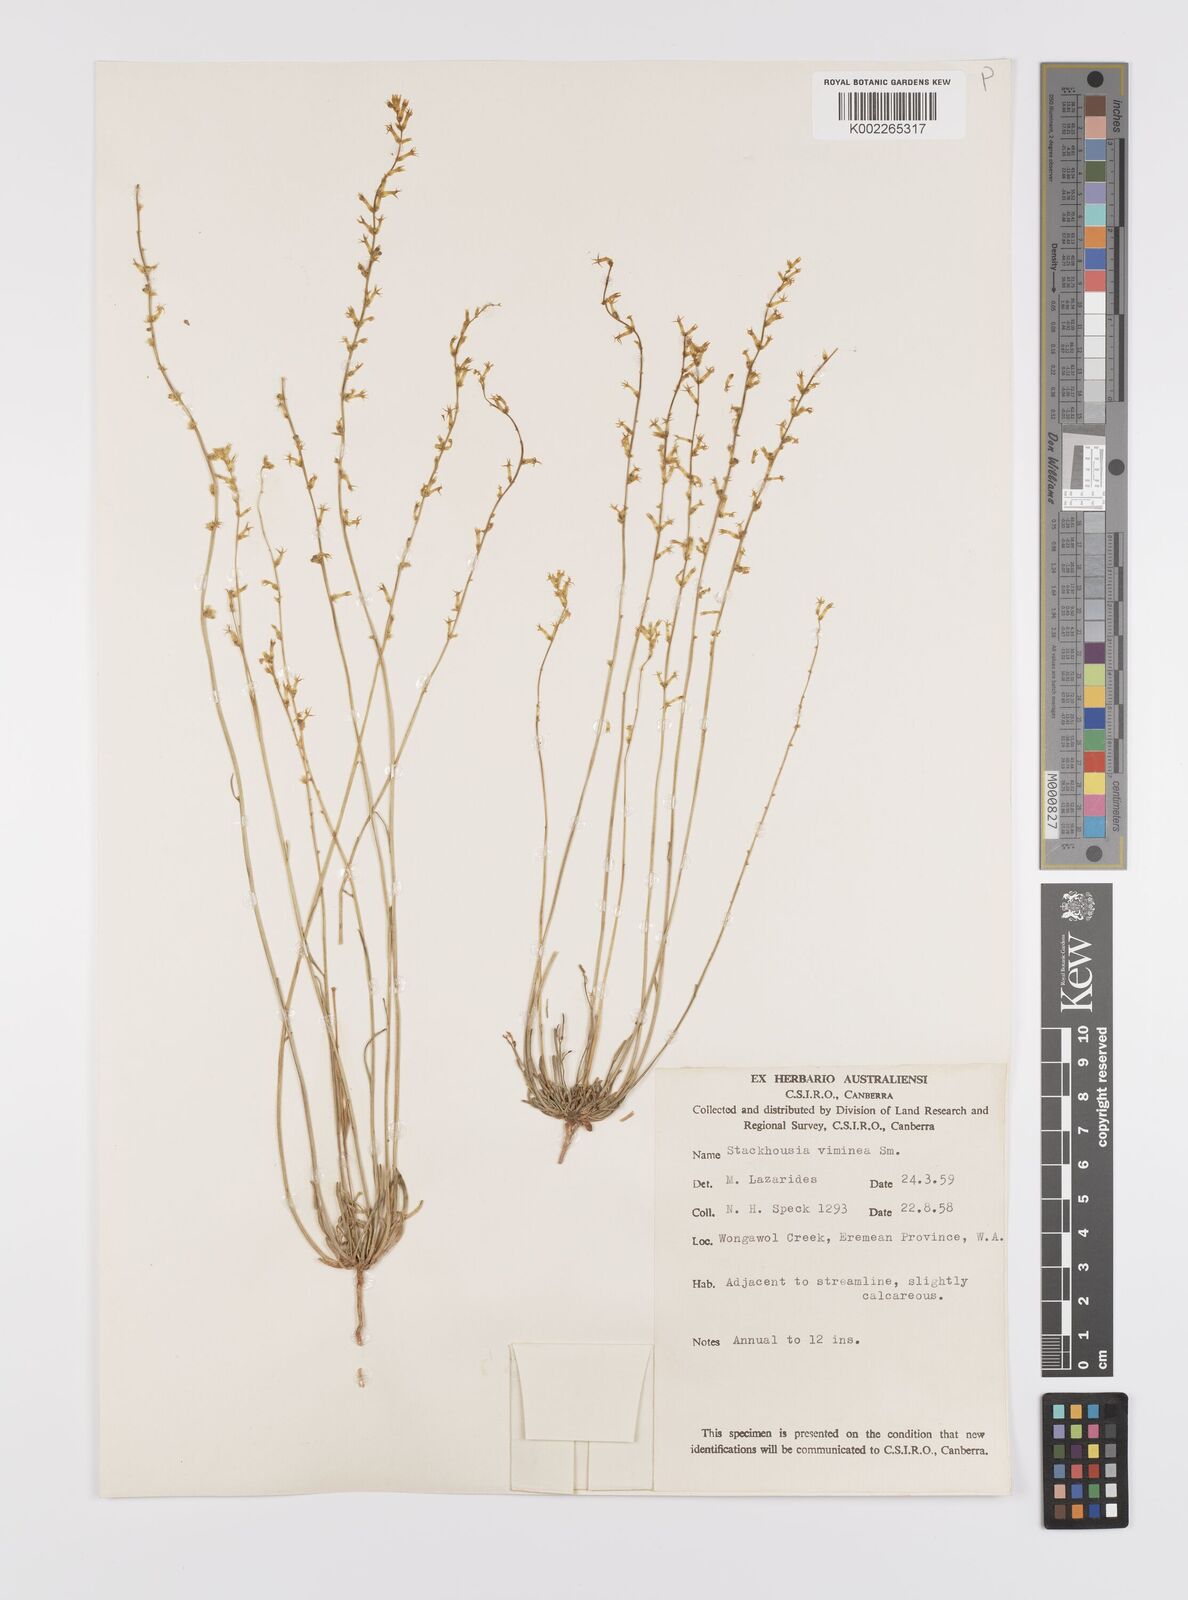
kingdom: Plantae
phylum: Tracheophyta
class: Magnoliopsida
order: Celastrales
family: Celastraceae
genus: Stackhousia
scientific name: Stackhousia viminea
